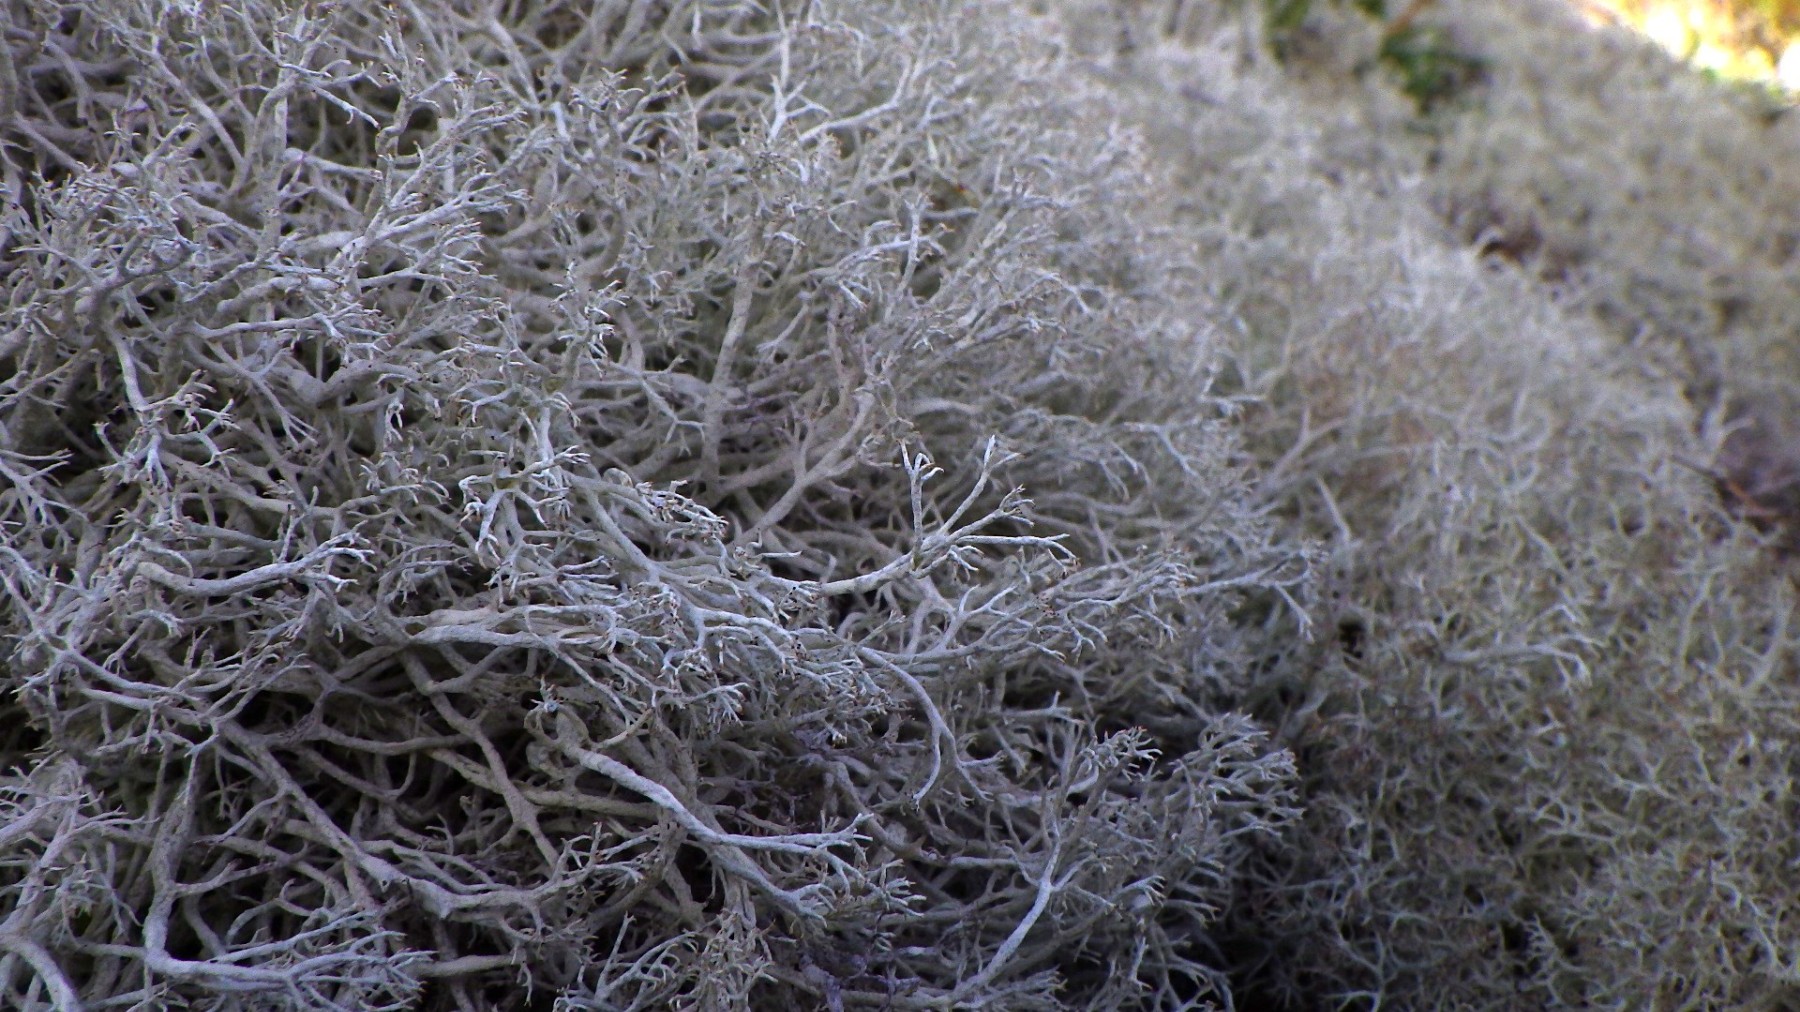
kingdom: Fungi
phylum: Ascomycota
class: Lecanoromycetes
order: Lecanorales
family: Cladoniaceae
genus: Cladonia
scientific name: Cladonia rangiferina
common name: askegrå rensdyrlav
